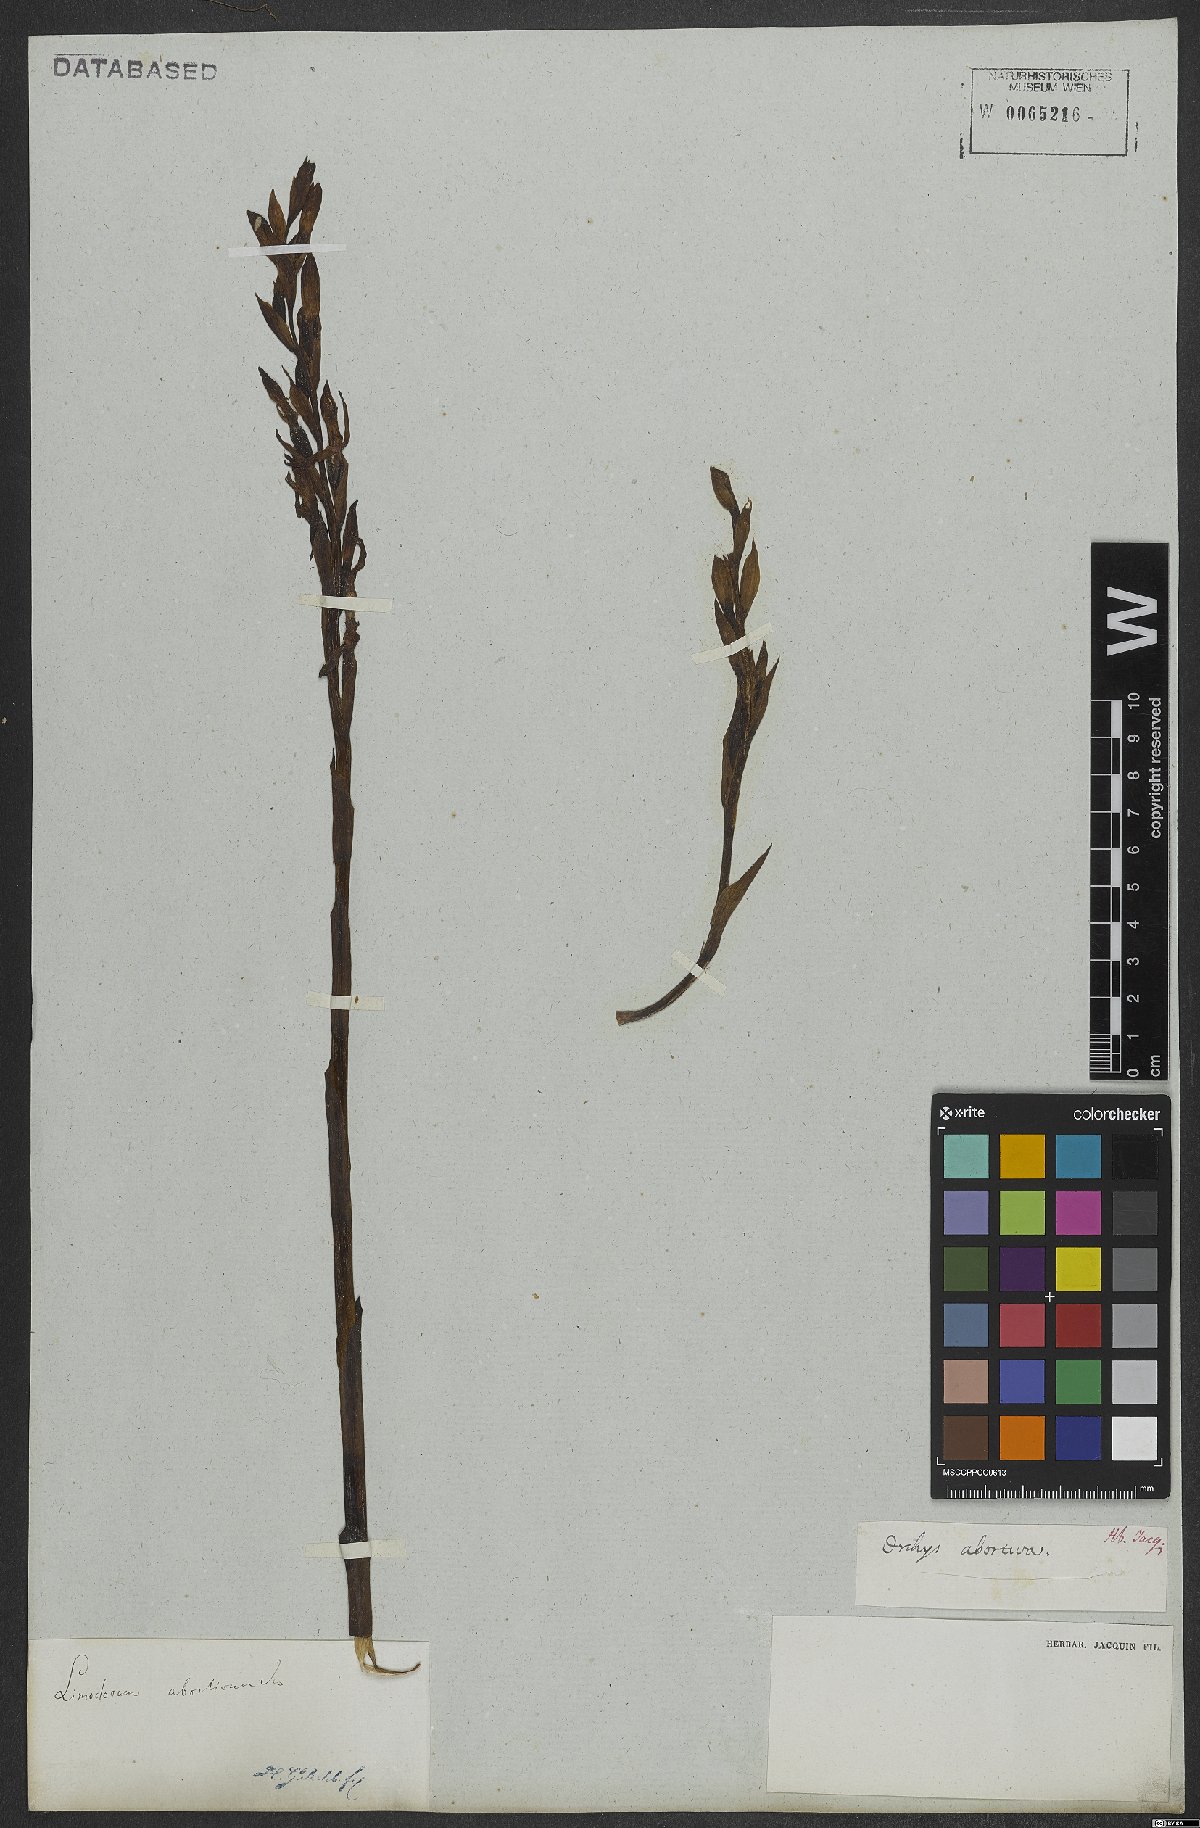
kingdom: Plantae
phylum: Tracheophyta
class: Liliopsida
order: Asparagales
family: Orchidaceae
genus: Limodorum
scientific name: Limodorum abortivum
